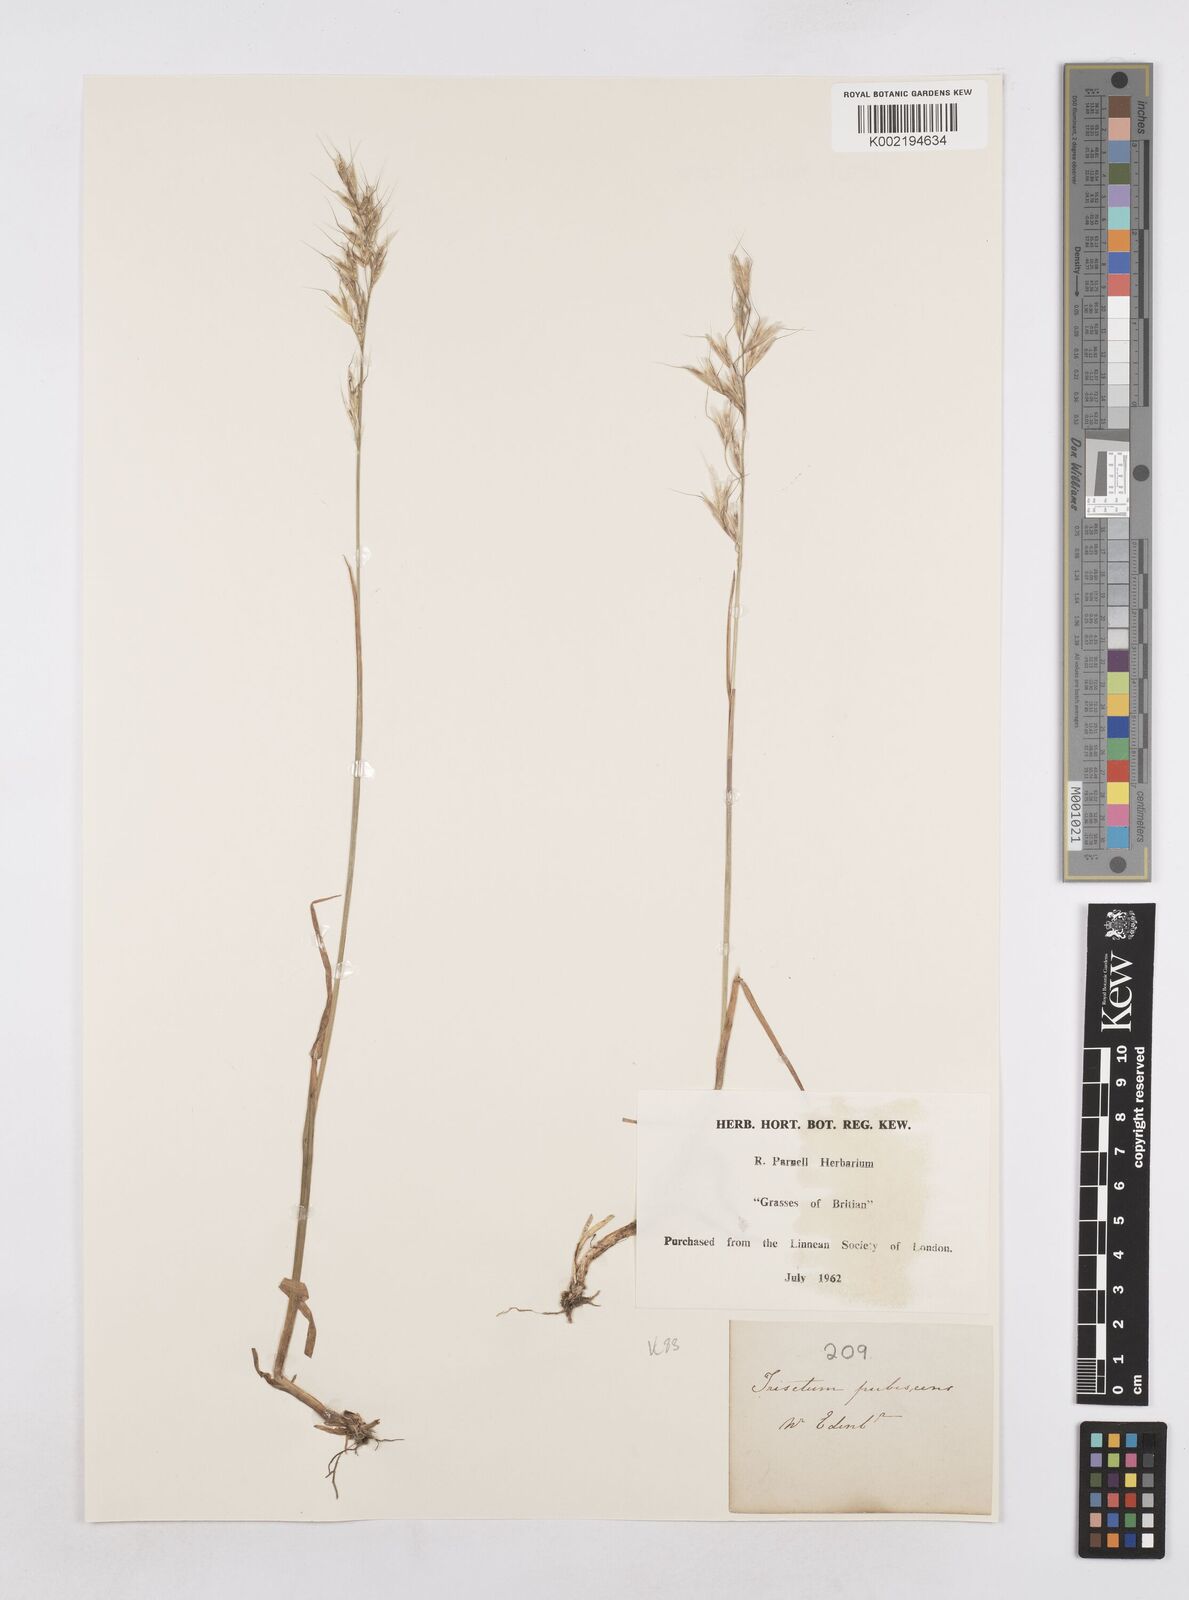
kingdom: Plantae
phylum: Tracheophyta
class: Liliopsida
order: Poales
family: Poaceae
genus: Avenula
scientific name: Avenula pubescens
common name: Downy alpine oatgrass
